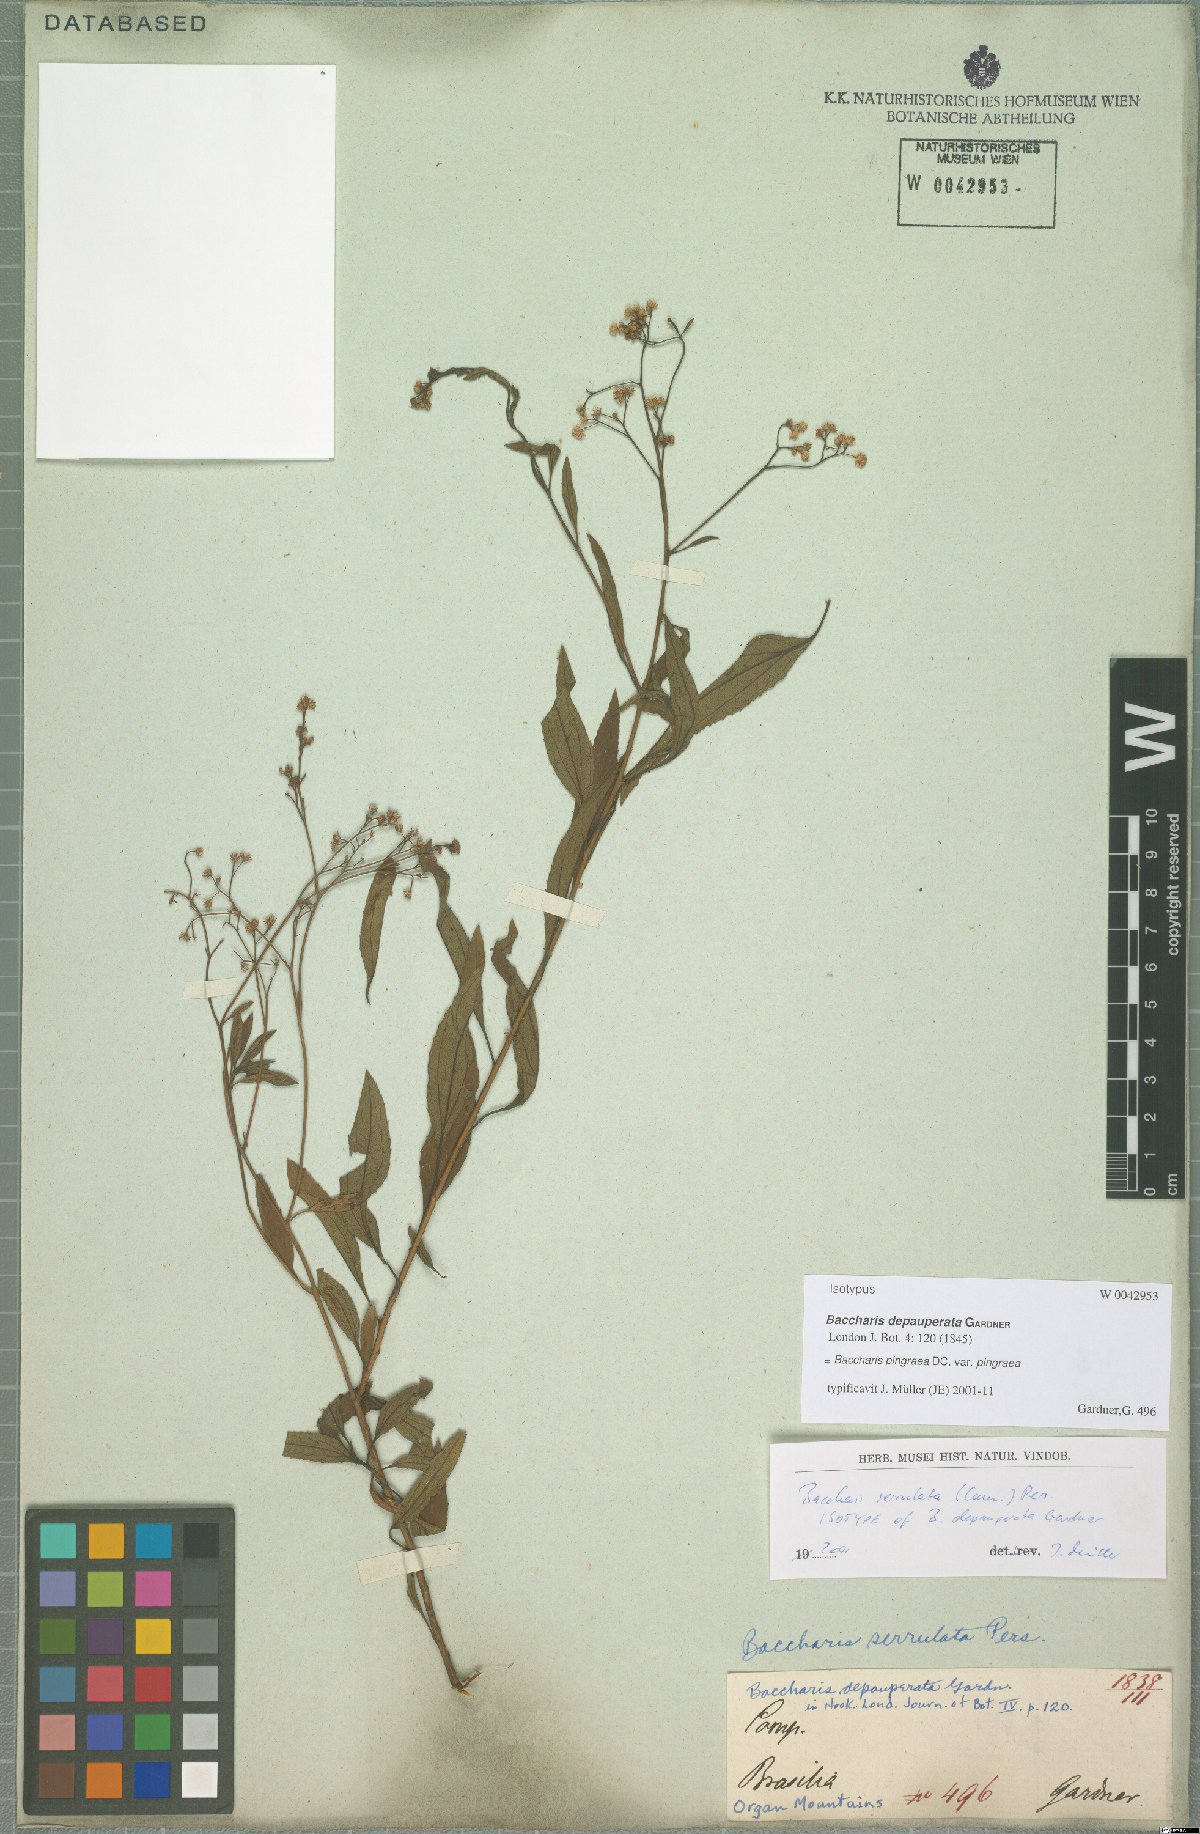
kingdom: Plantae
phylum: Tracheophyta
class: Magnoliopsida
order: Asterales
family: Asteraceae
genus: Baccharis
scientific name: Baccharis glutinosa
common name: Saltmarsh baccharis
